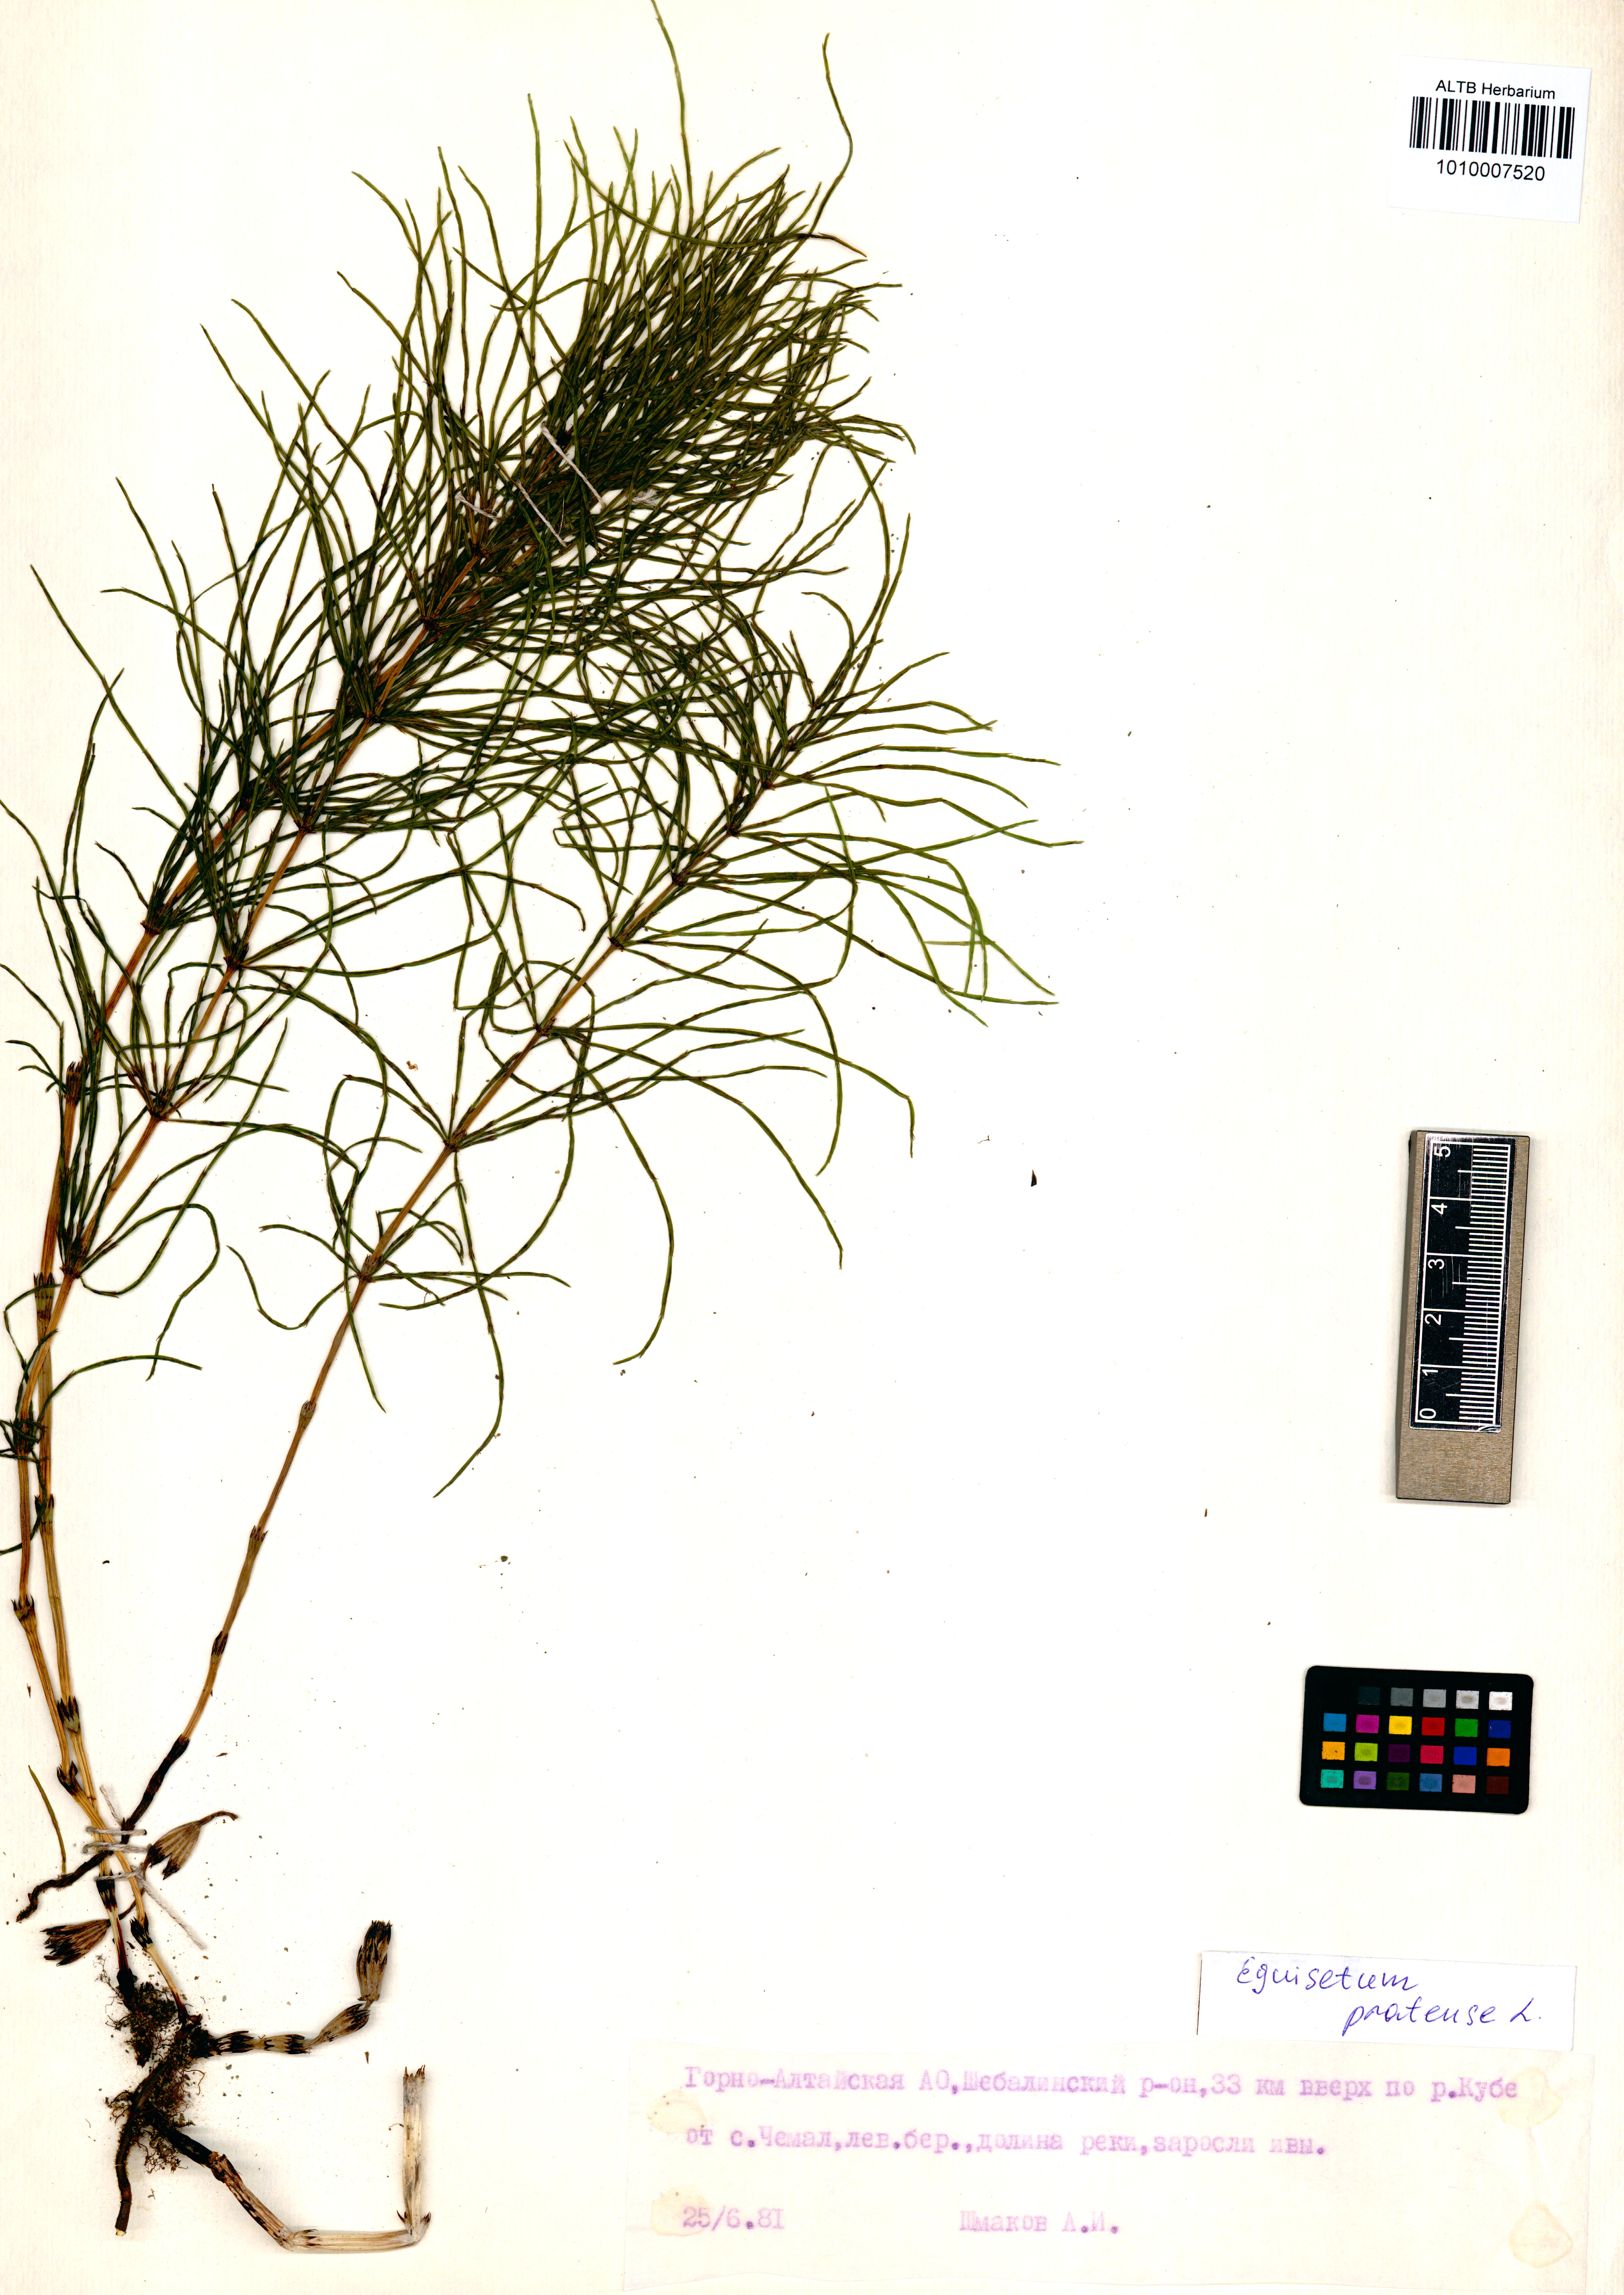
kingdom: Plantae
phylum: Tracheophyta
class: Polypodiopsida
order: Equisetales
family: Equisetaceae
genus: Equisetum
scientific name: Equisetum pratense
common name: Meadow horsetail
